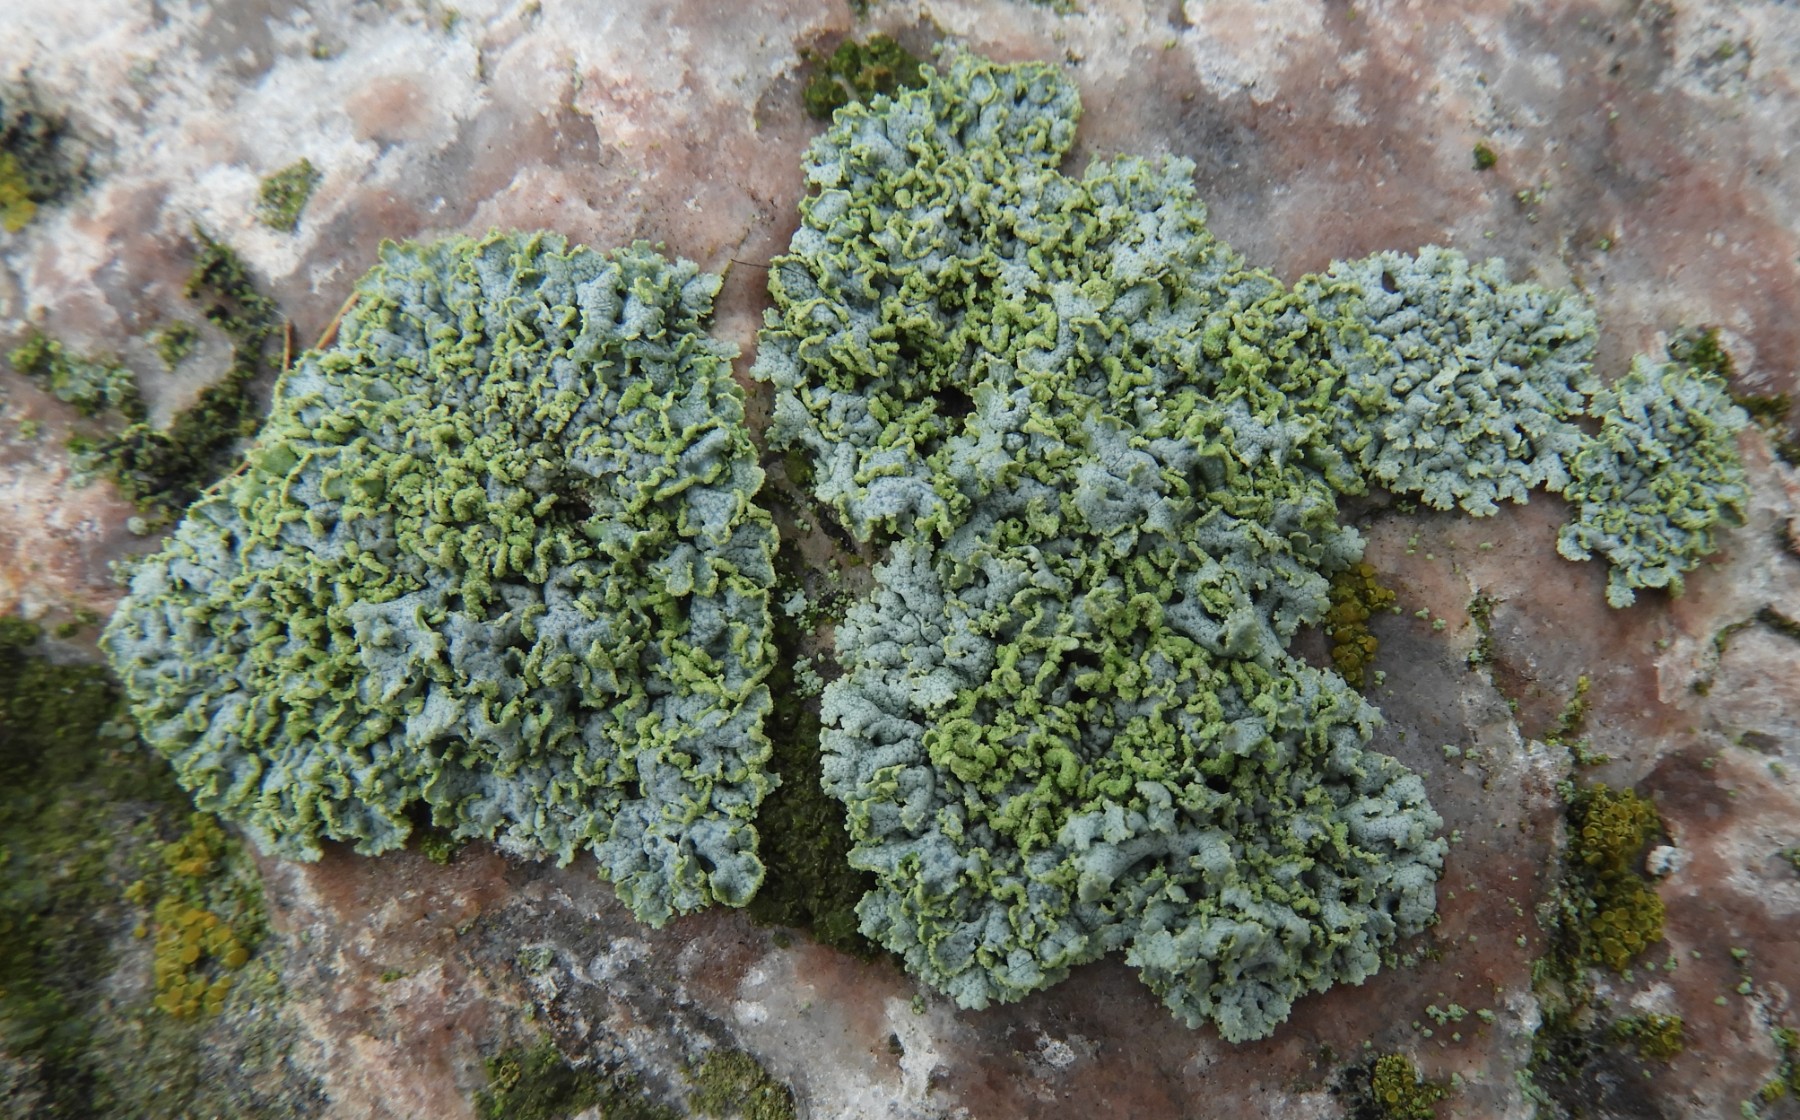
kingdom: Fungi
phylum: Ascomycota
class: Lecanoromycetes
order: Caliciales
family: Physciaceae
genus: Physcia
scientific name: Physcia dubia
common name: fuglestens-rosetlav
